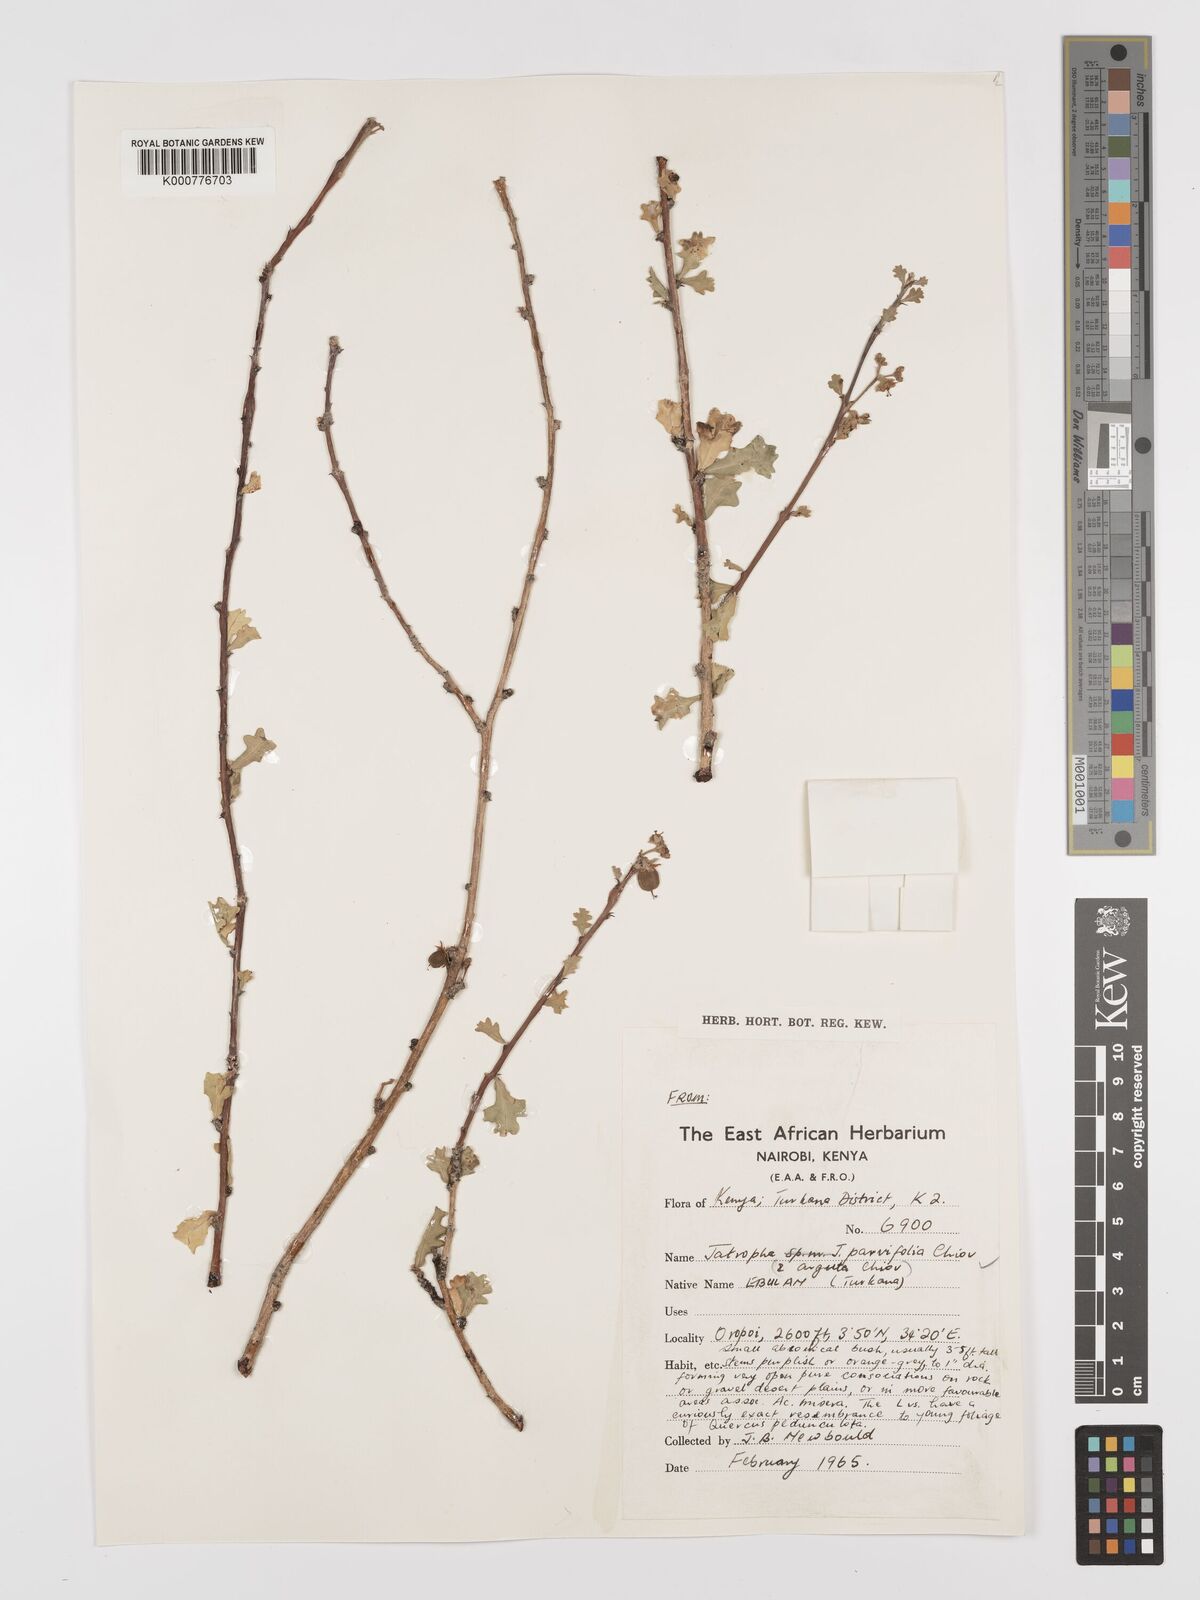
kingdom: Plantae
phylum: Tracheophyta
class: Magnoliopsida
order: Malpighiales
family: Euphorbiaceae
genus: Jatropha
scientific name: Jatropha rivae
